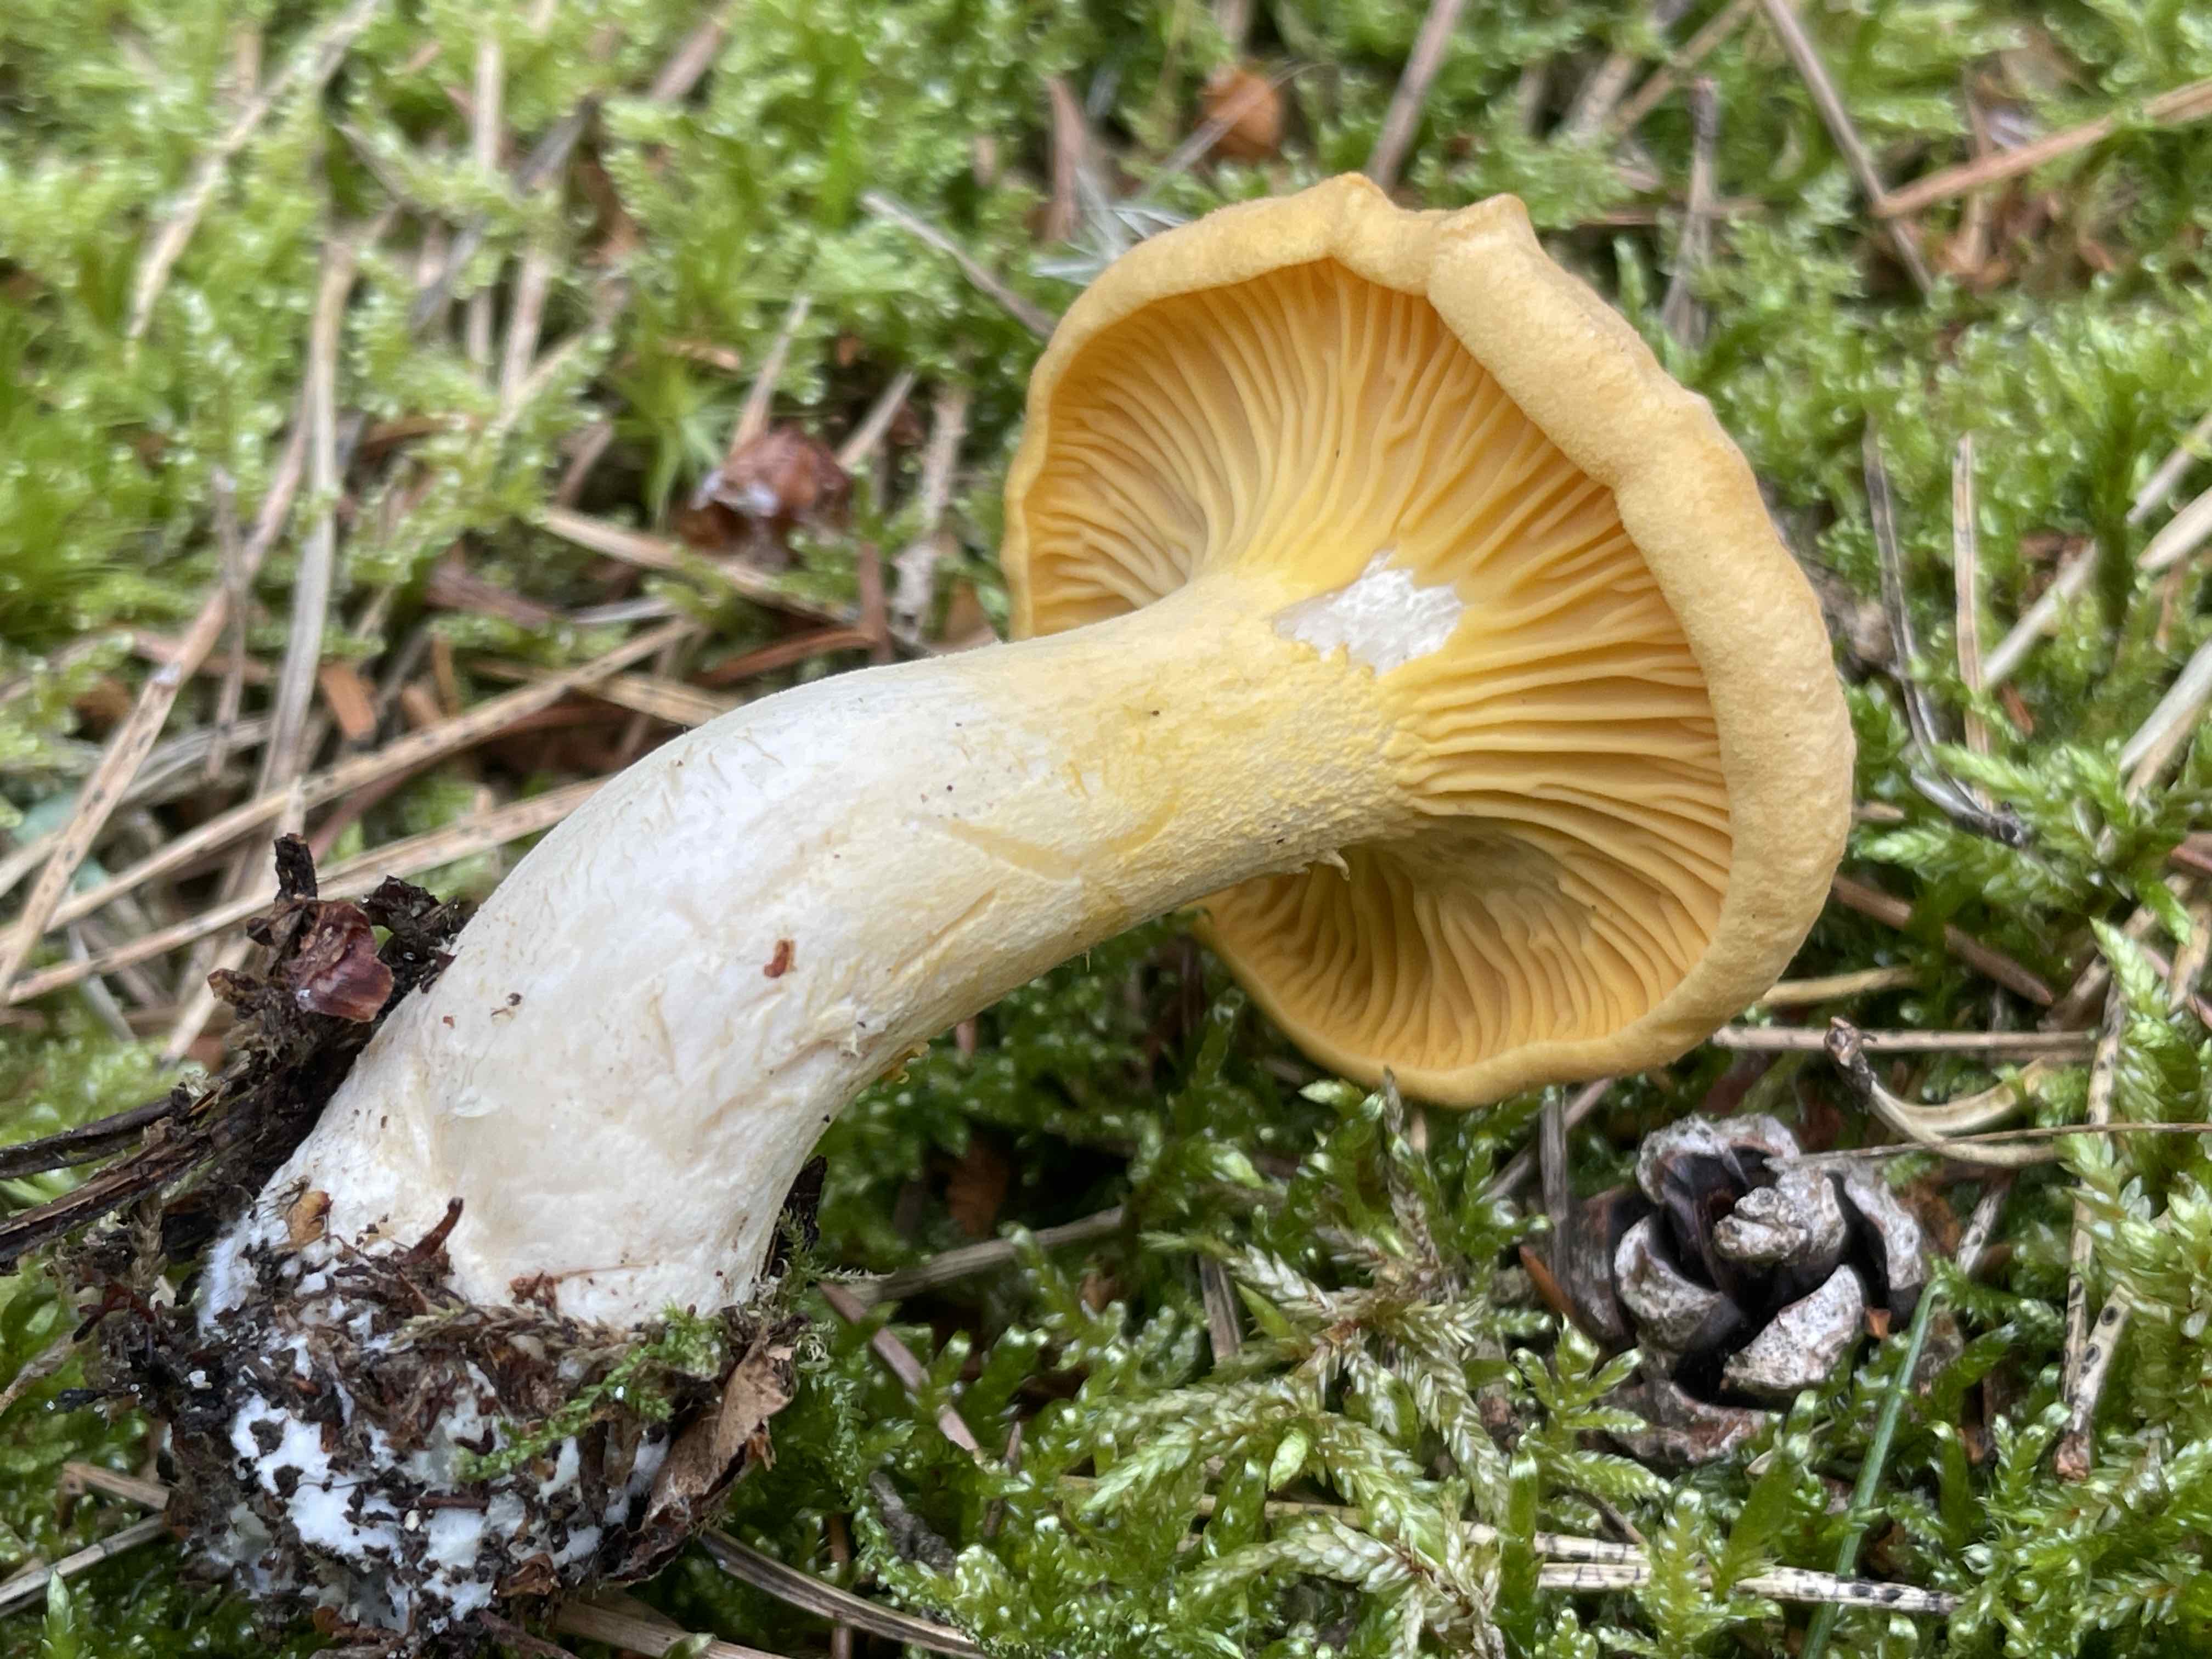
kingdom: Fungi
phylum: Basidiomycota
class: Agaricomycetes
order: Cantharellales
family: Hydnaceae
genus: Cantharellus
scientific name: Cantharellus cibarius
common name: almindelig kantarel
